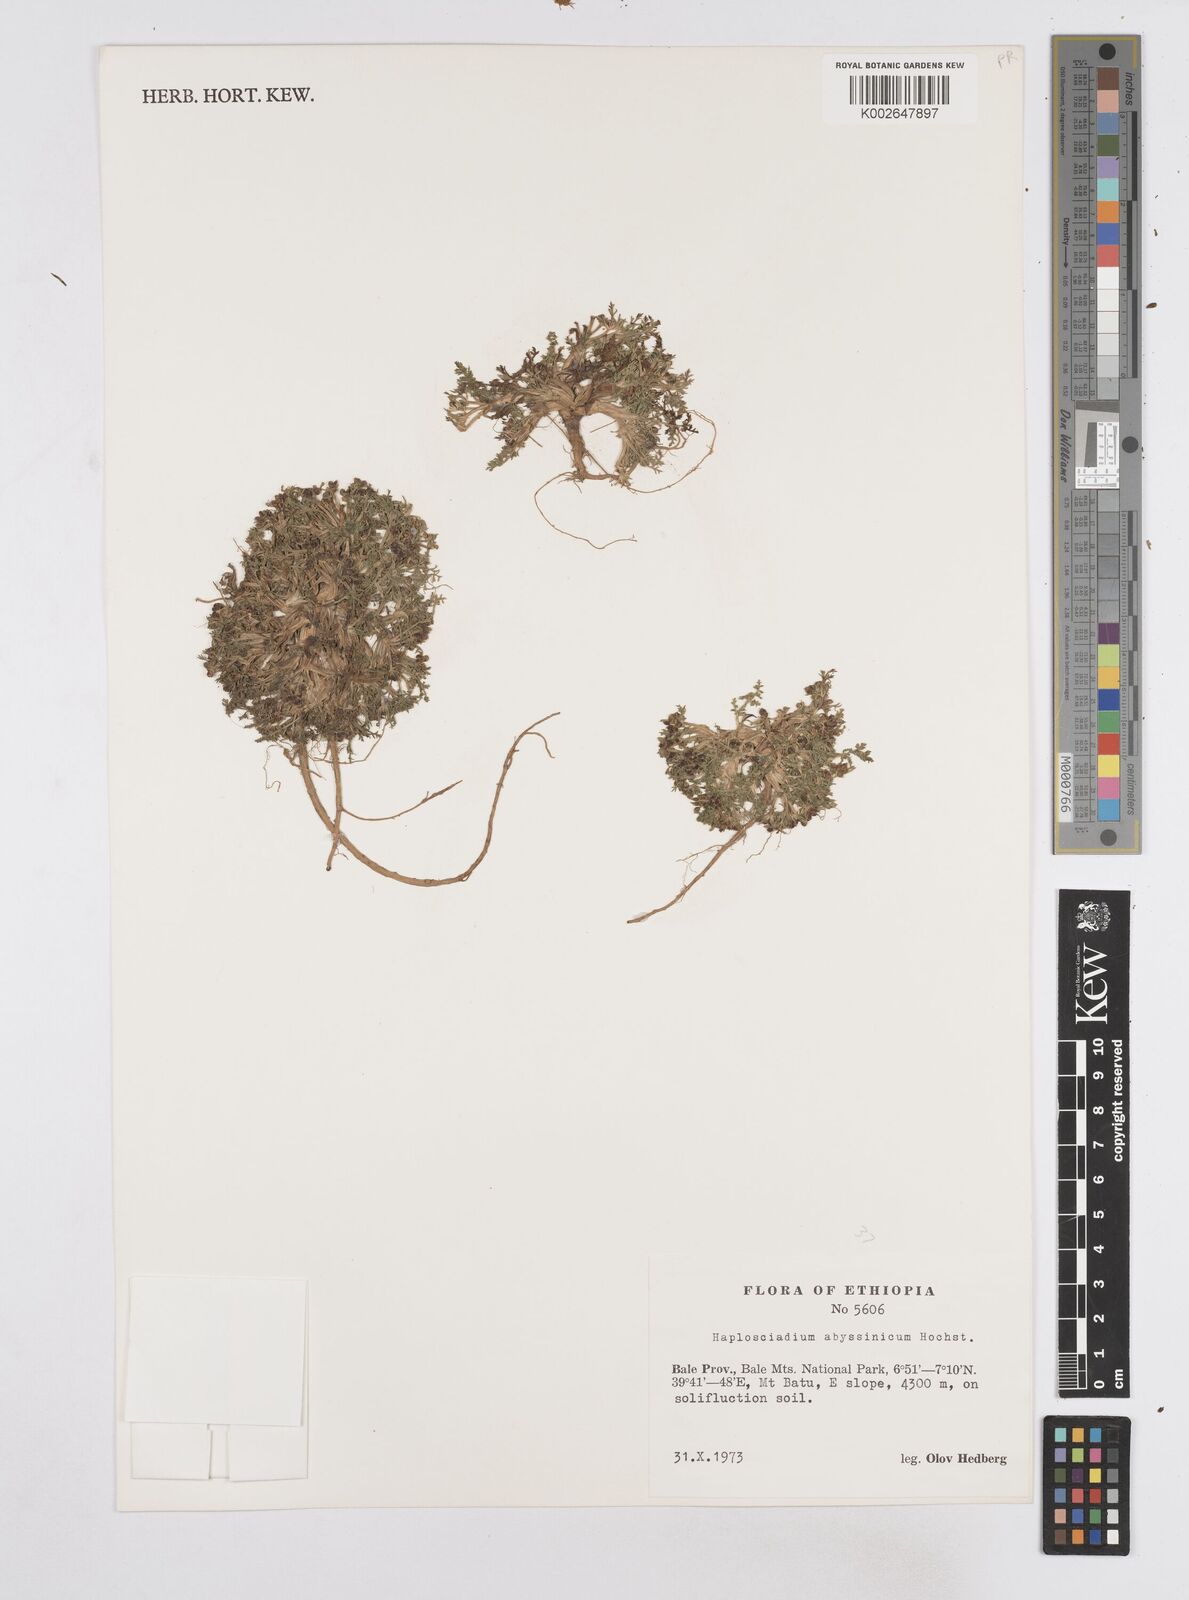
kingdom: Plantae
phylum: Tracheophyta
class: Magnoliopsida
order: Apiales
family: Apiaceae
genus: Haplosciadium
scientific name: Haplosciadium abyssinicum
